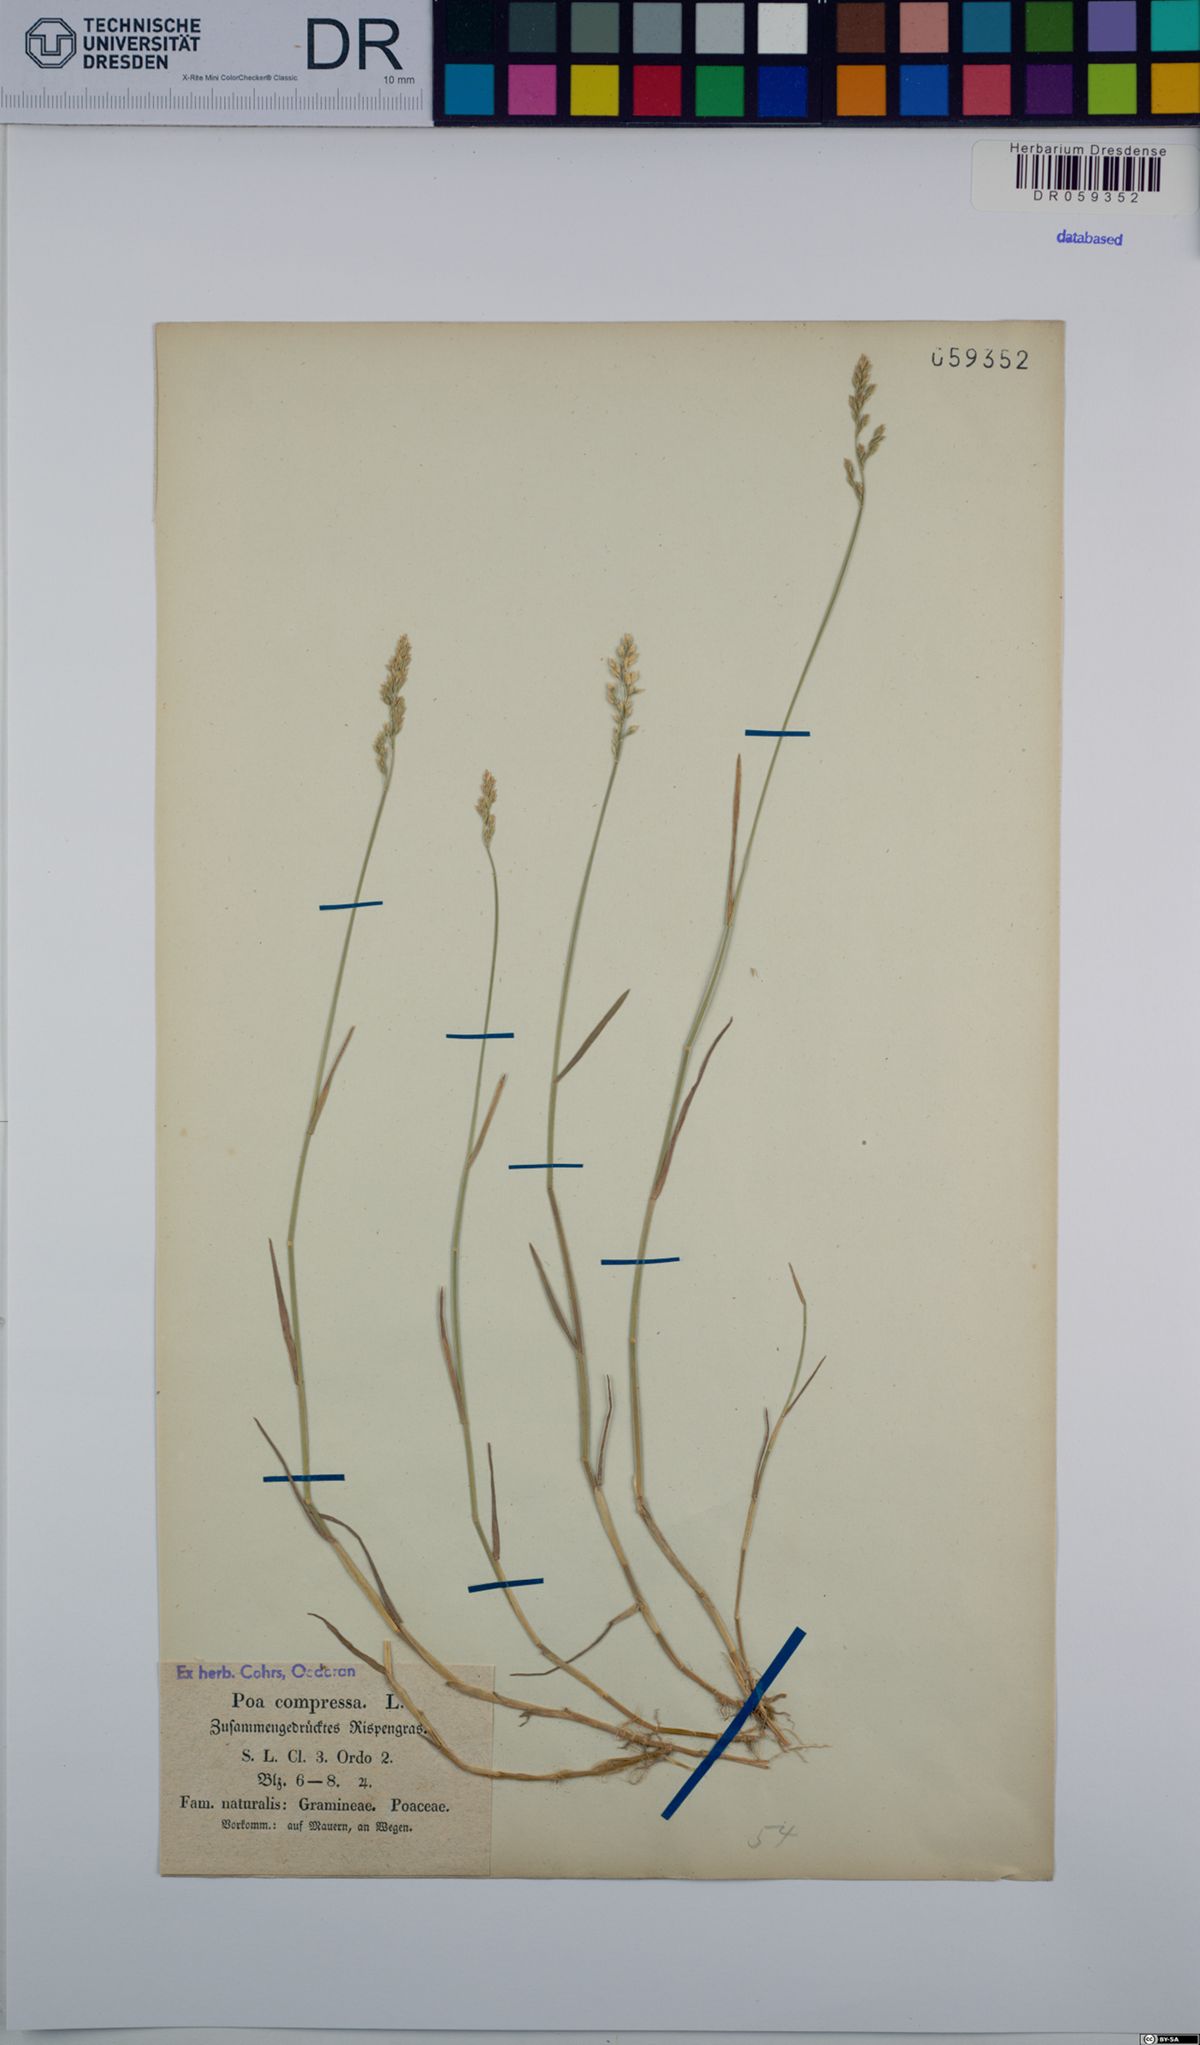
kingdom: Plantae
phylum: Tracheophyta
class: Liliopsida
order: Poales
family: Poaceae
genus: Poa
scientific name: Poa compressa
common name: Canada bluegrass
